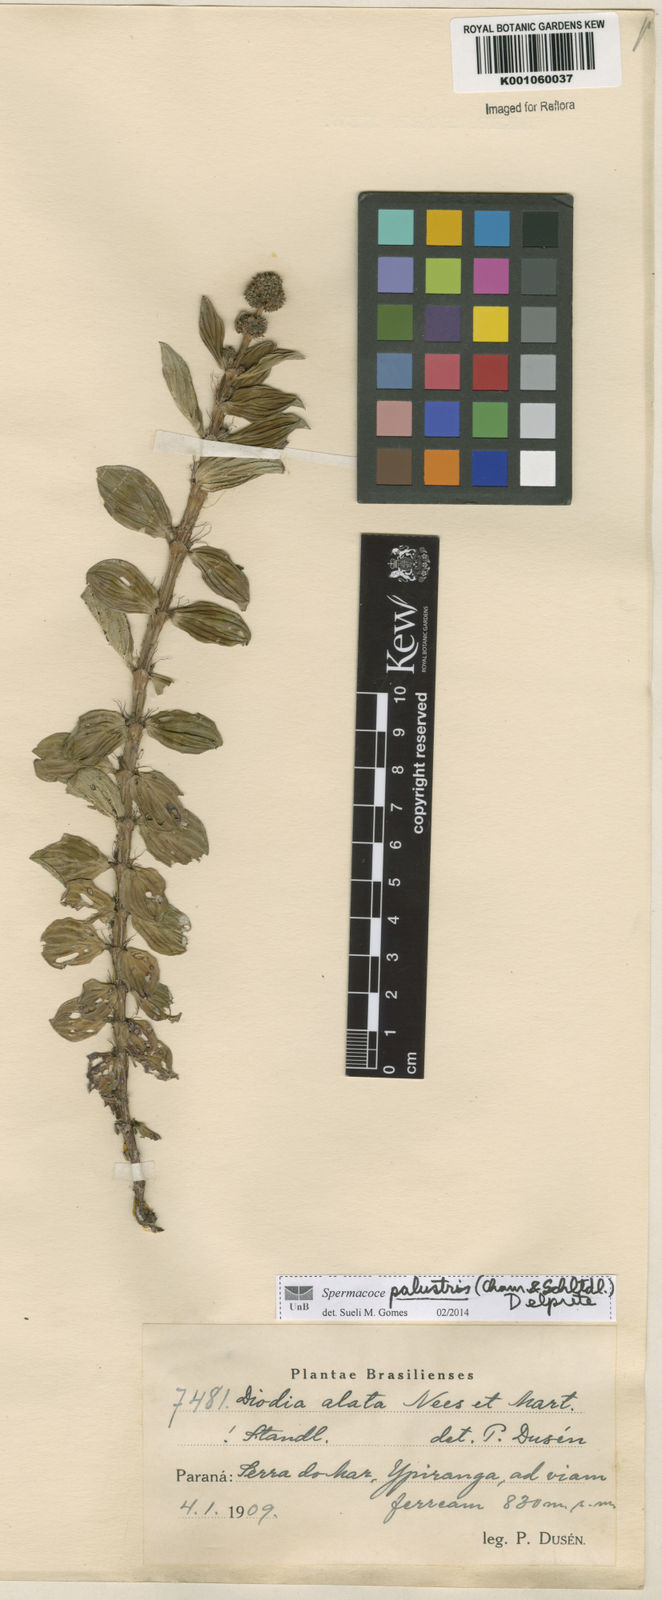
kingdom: Plantae
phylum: Tracheophyta
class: Magnoliopsida
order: Gentianales
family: Rubiaceae
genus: Galianthe
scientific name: Galianthe palustris
